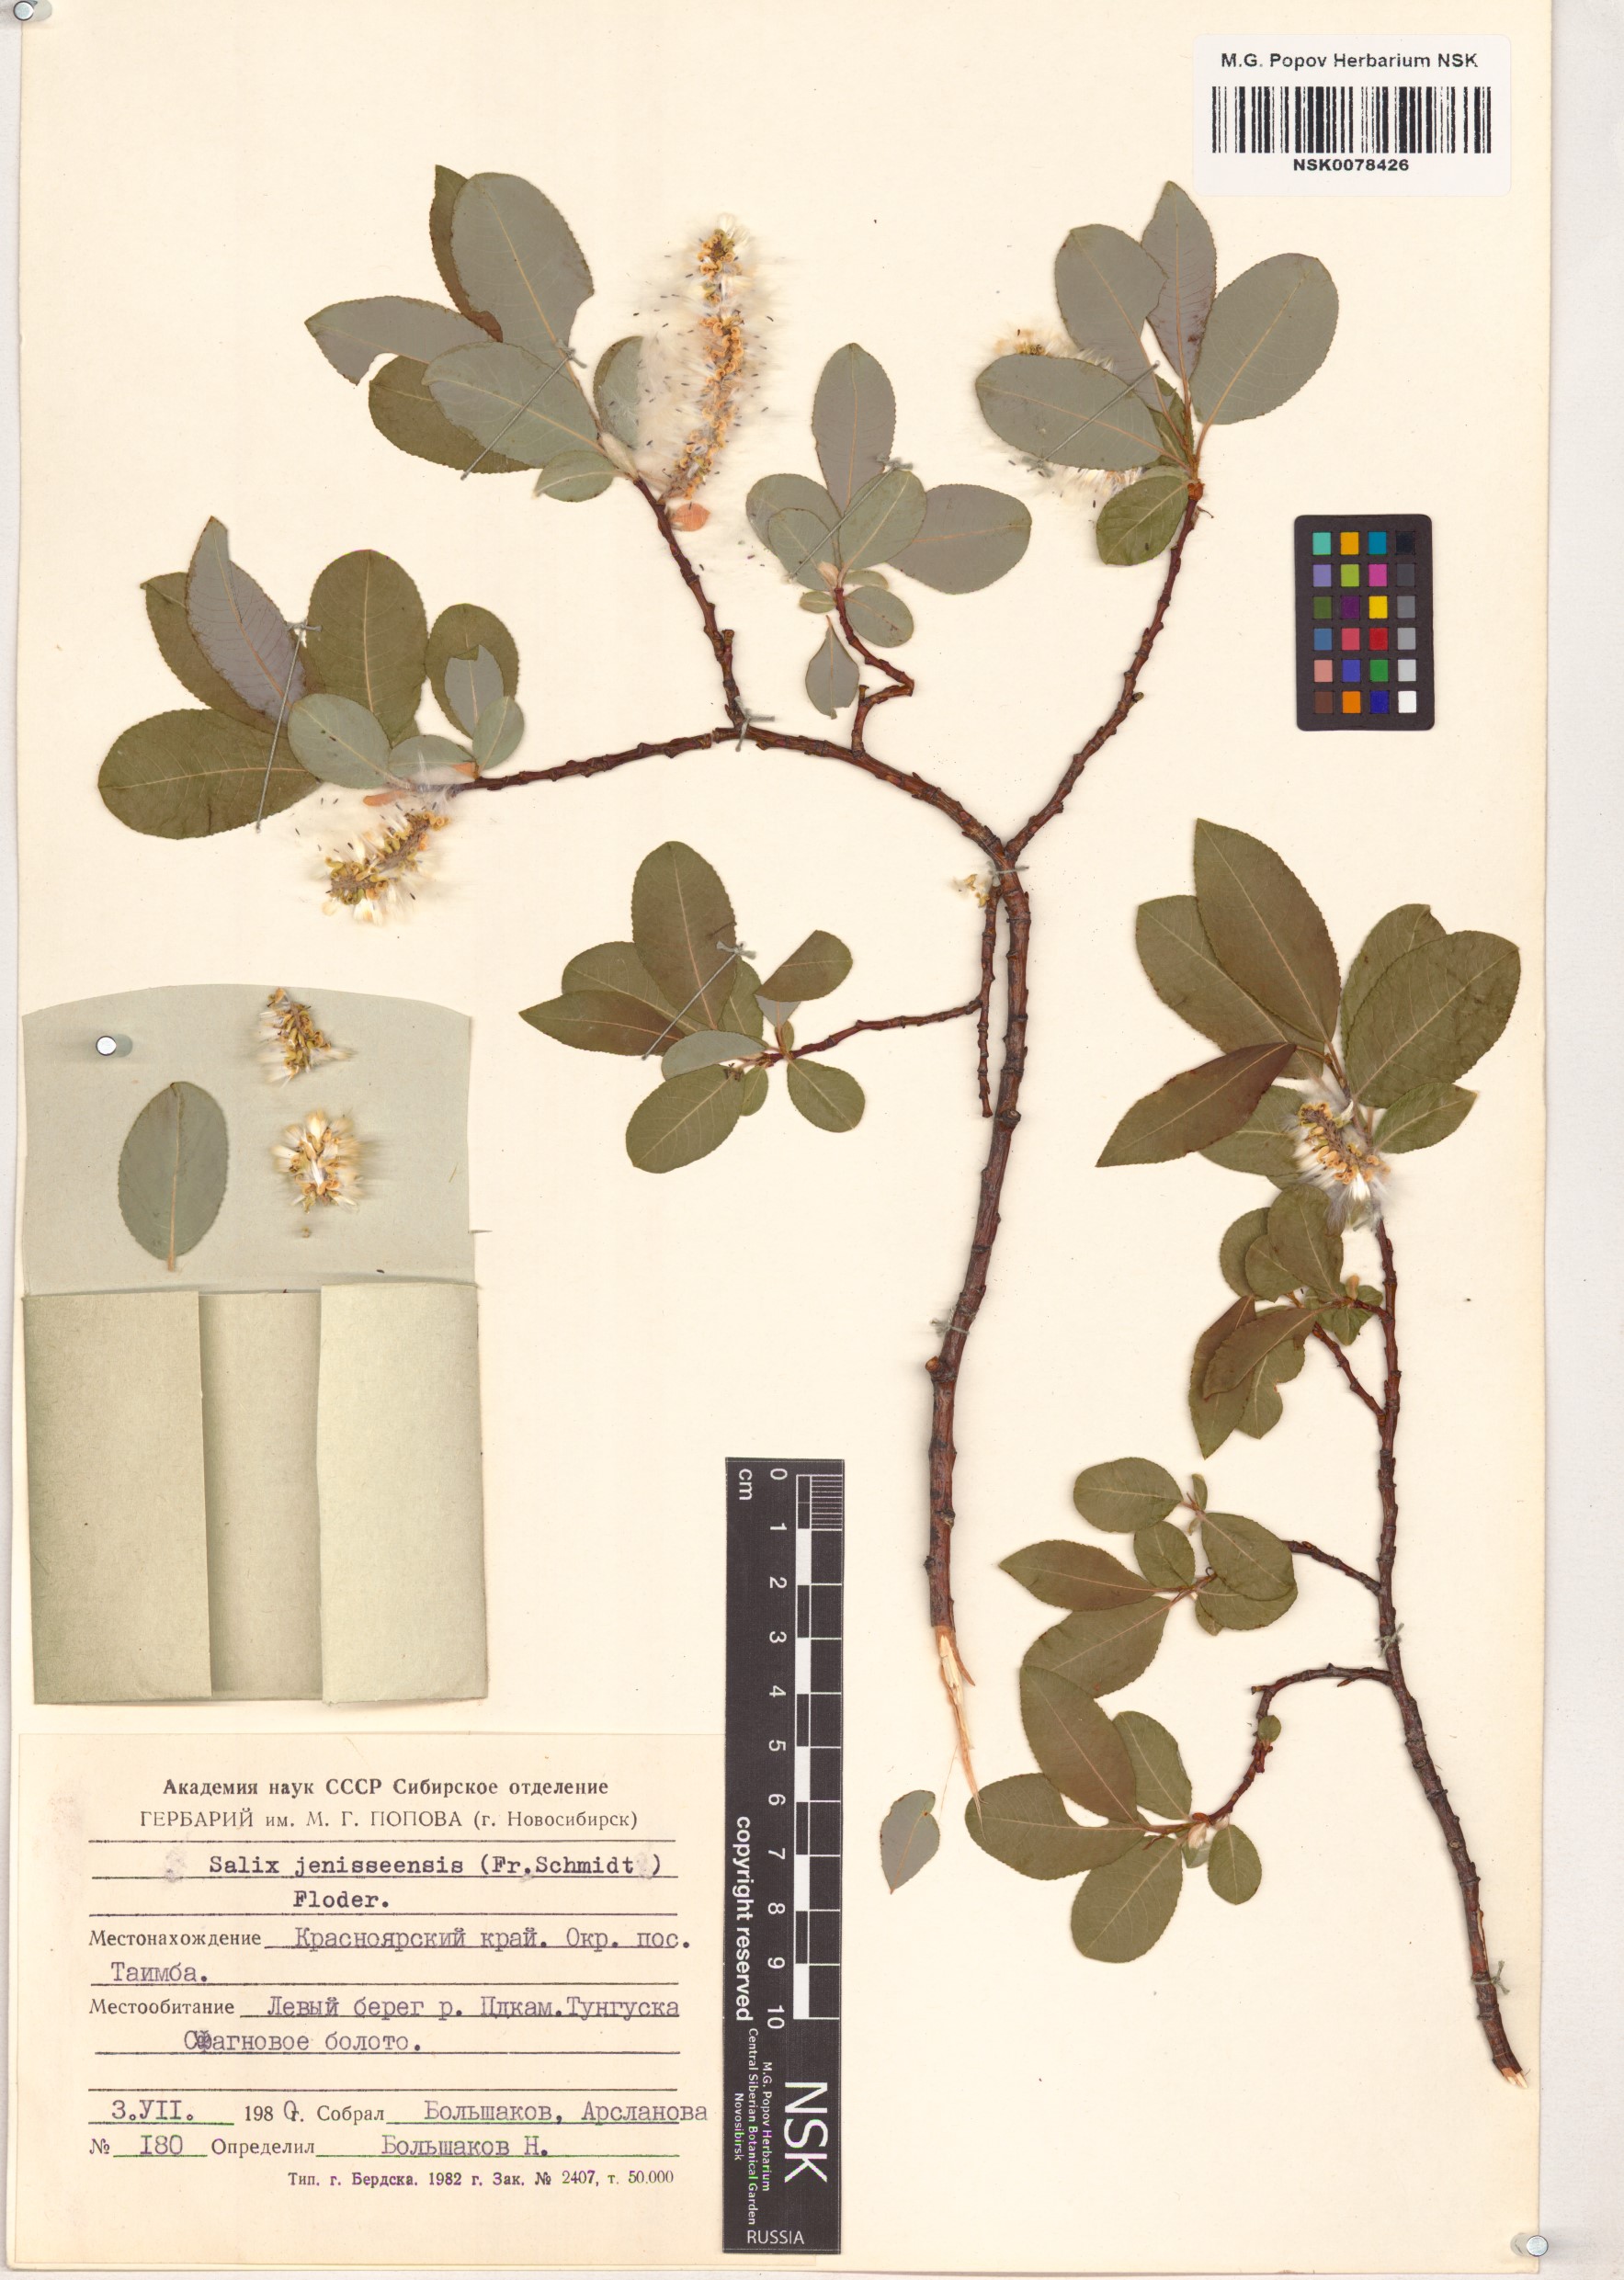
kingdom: Plantae
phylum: Tracheophyta
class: Magnoliopsida
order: Malpighiales
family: Salicaceae
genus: Salix
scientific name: Salix jenisseensis
